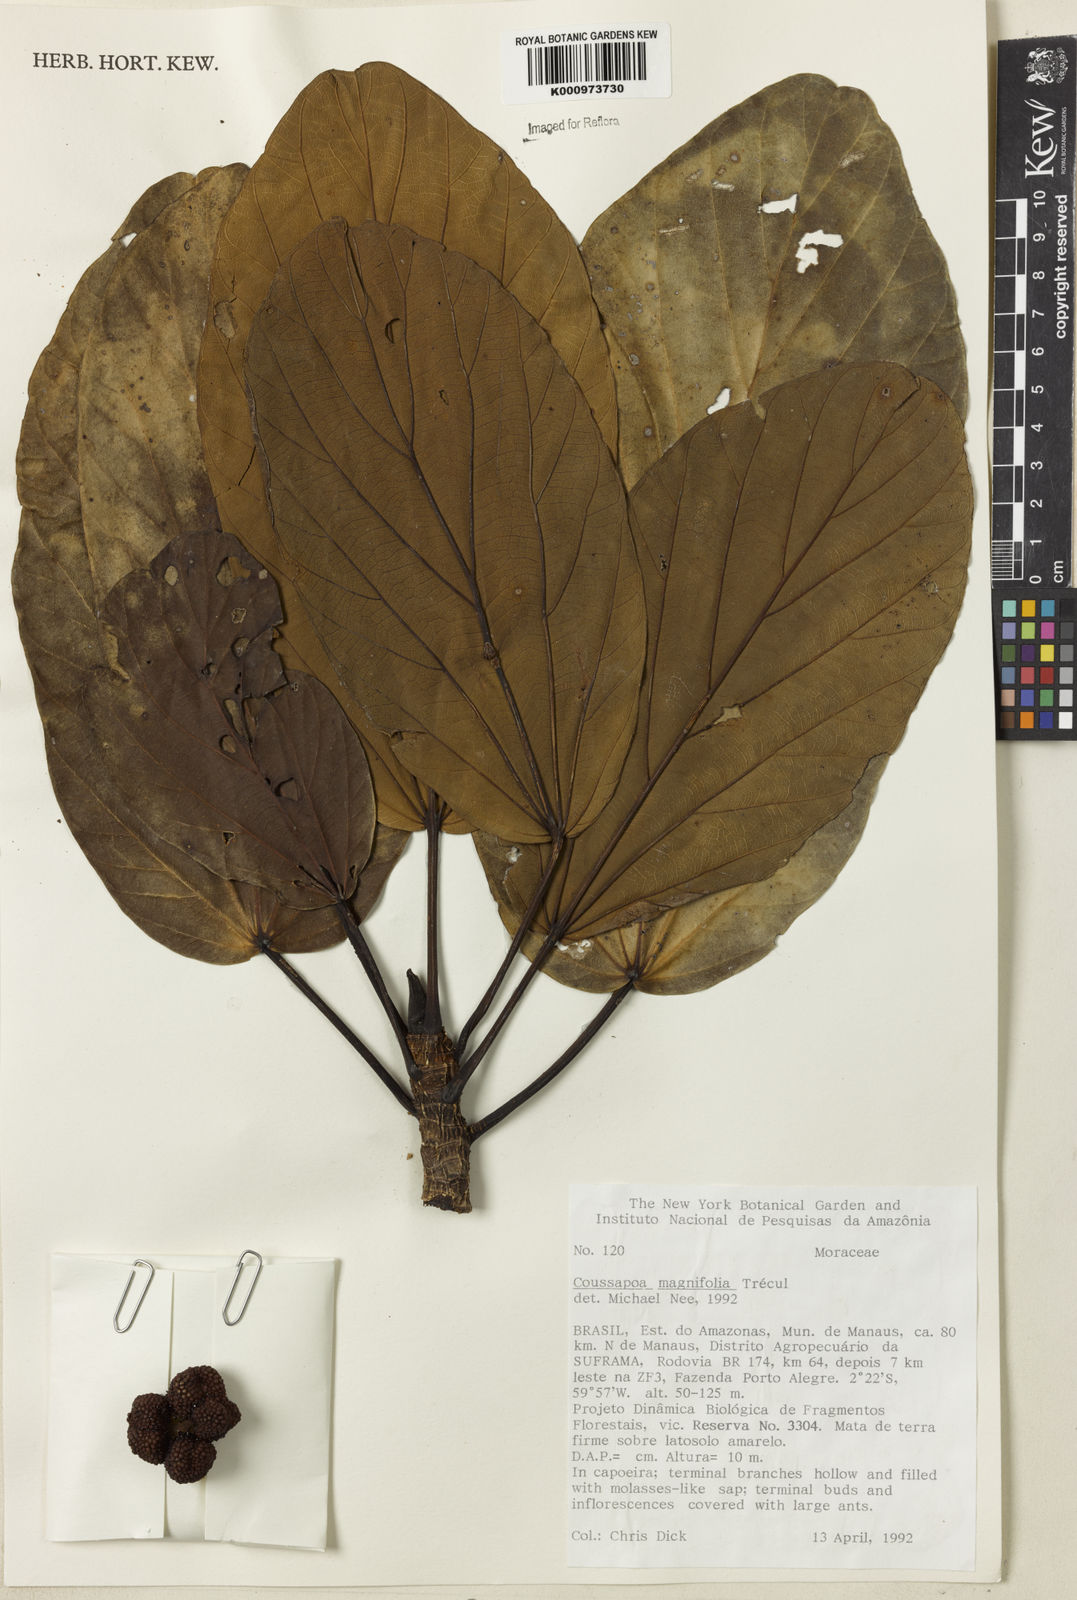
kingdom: Plantae
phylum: Tracheophyta
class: Magnoliopsida
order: Rosales
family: Urticaceae
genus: Coussapoa
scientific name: Coussapoa
